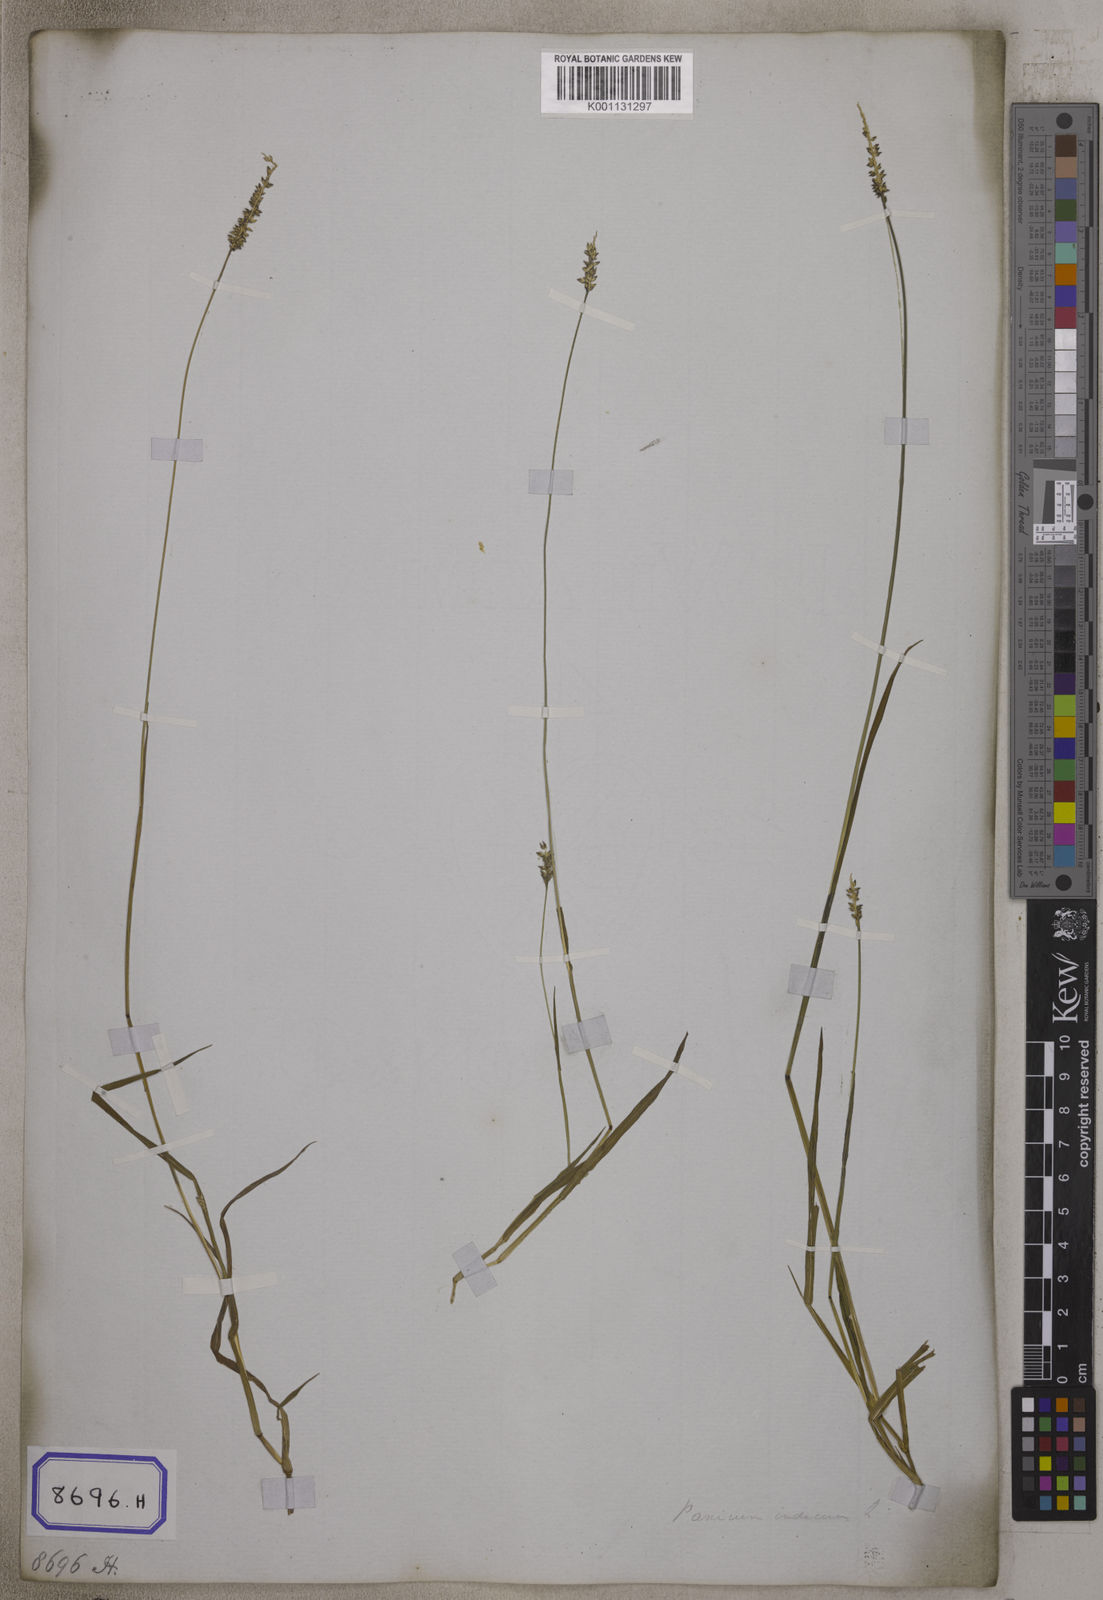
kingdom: Plantae
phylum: Tracheophyta
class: Liliopsida
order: Poales
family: Poaceae
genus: Panicum
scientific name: Panicum
